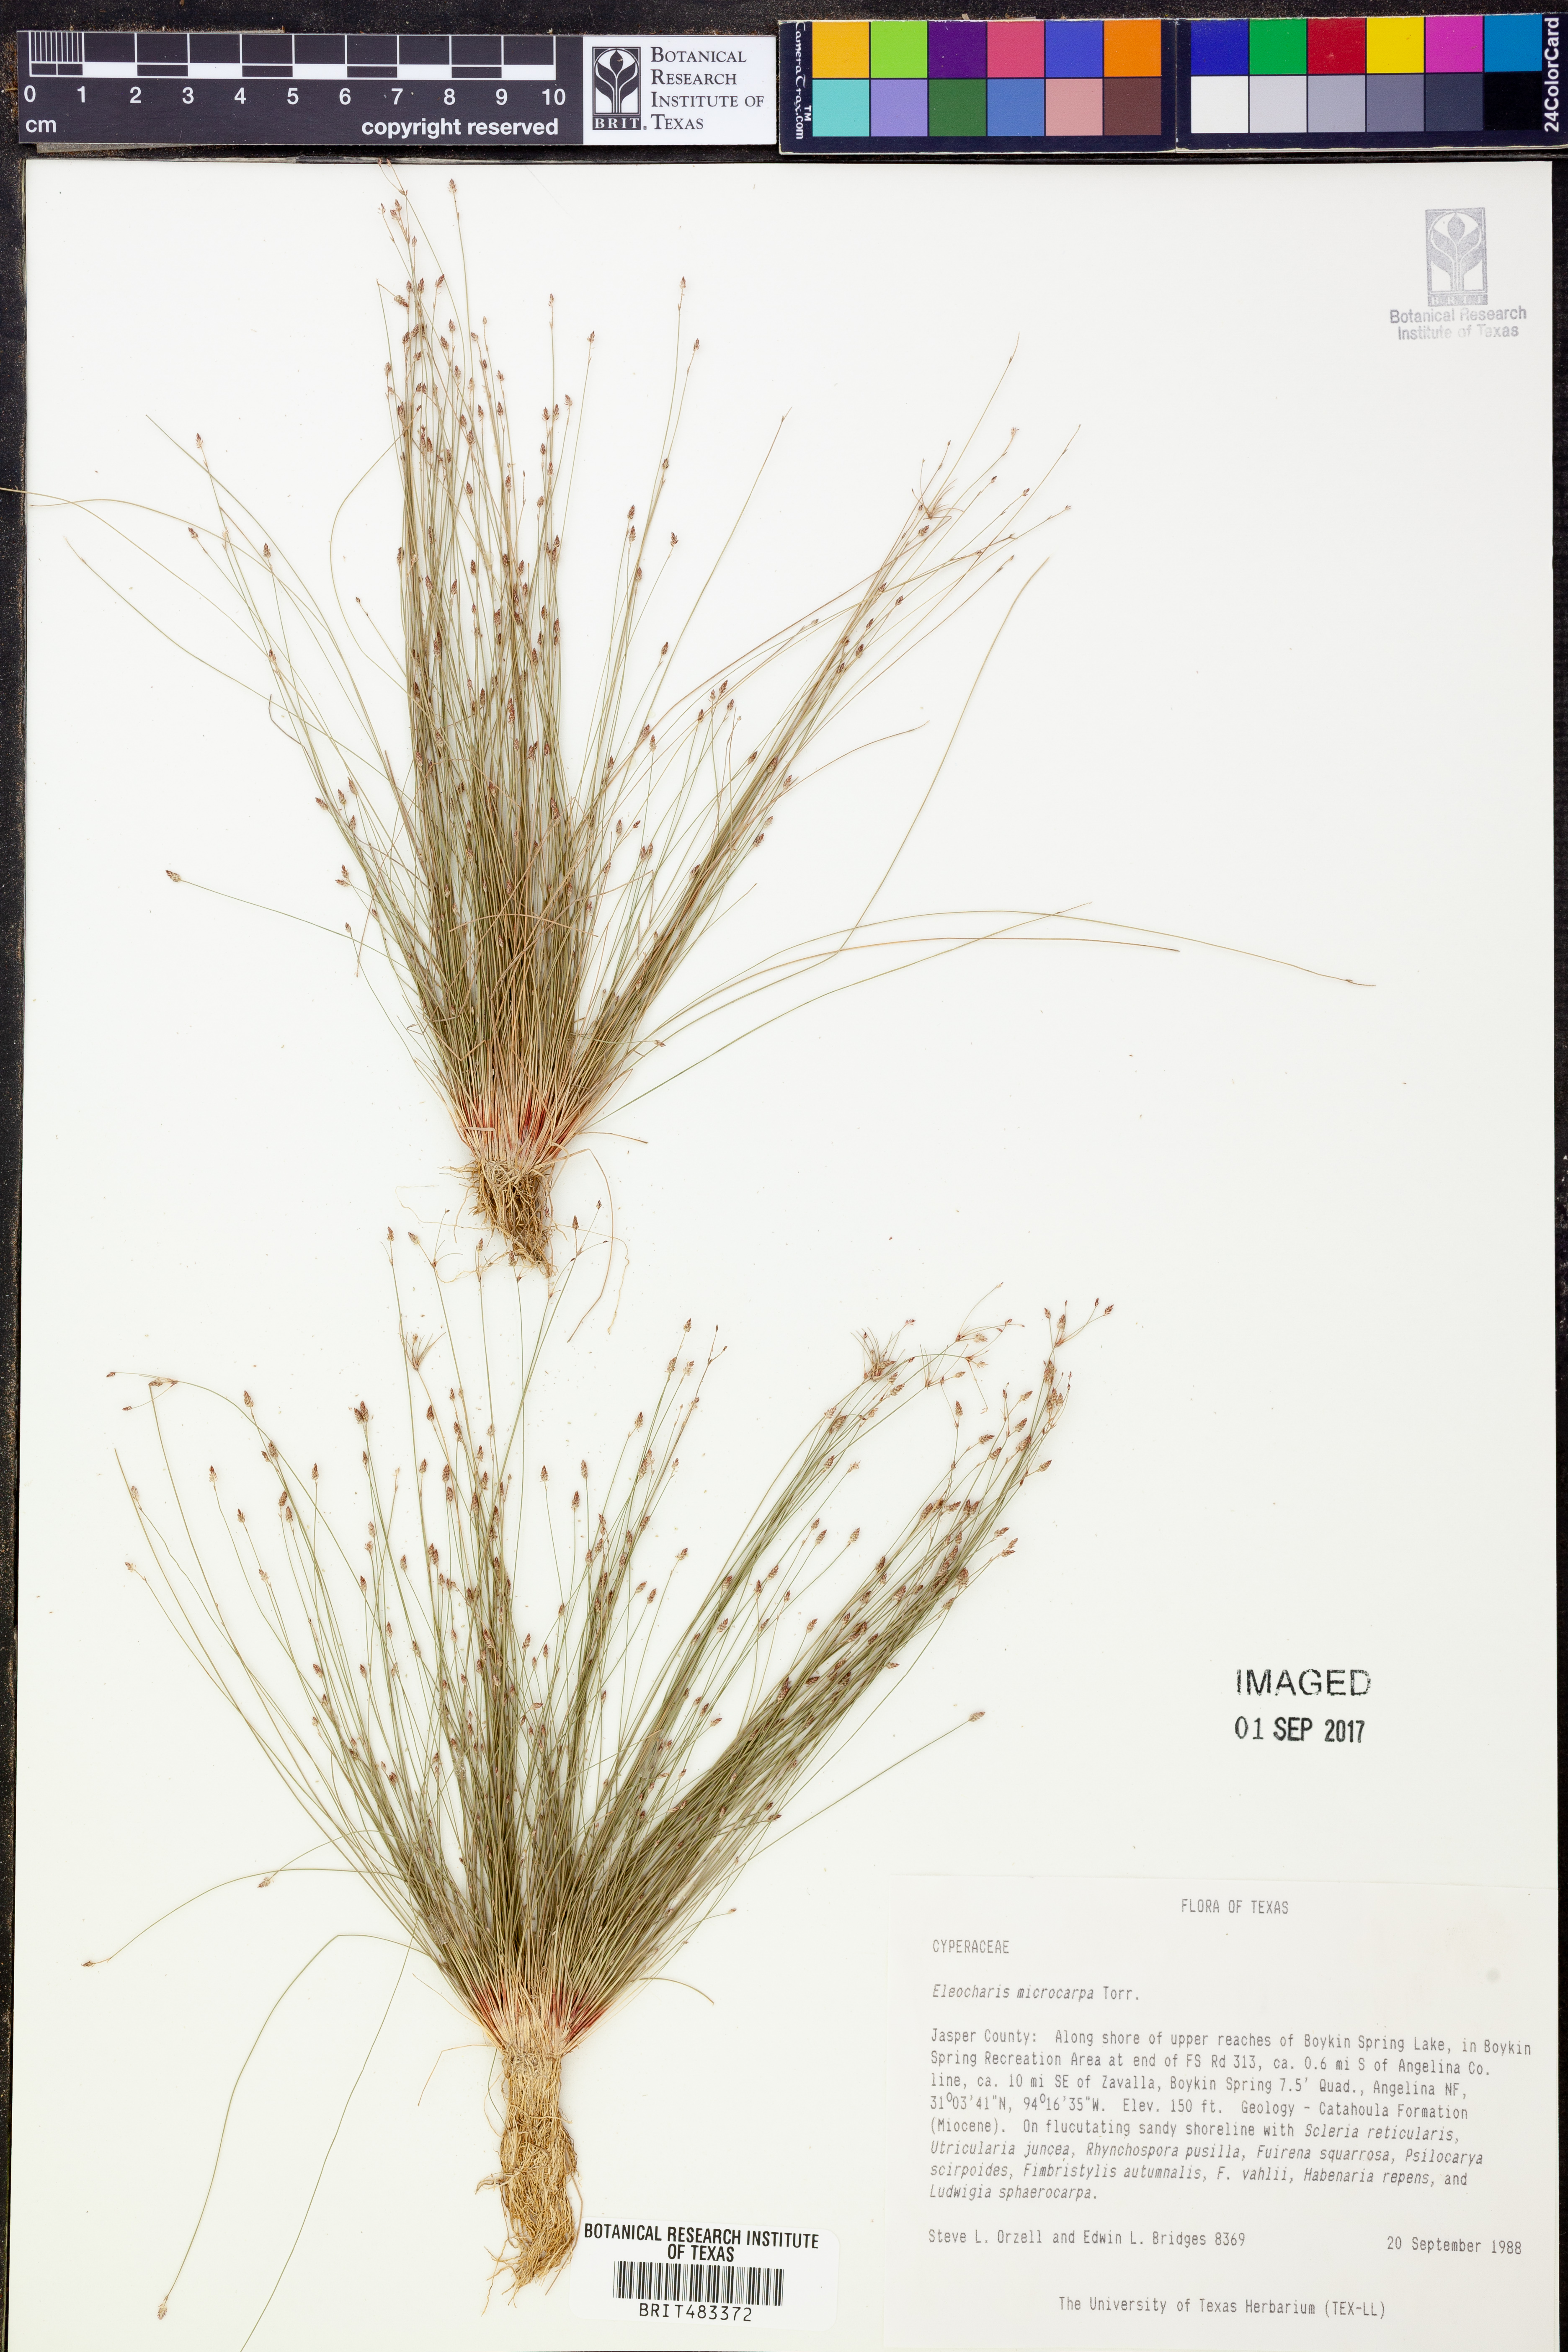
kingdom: Plantae
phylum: Tracheophyta
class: Liliopsida
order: Poales
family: Cyperaceae
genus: Eleocharis
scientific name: Eleocharis microcarpa
